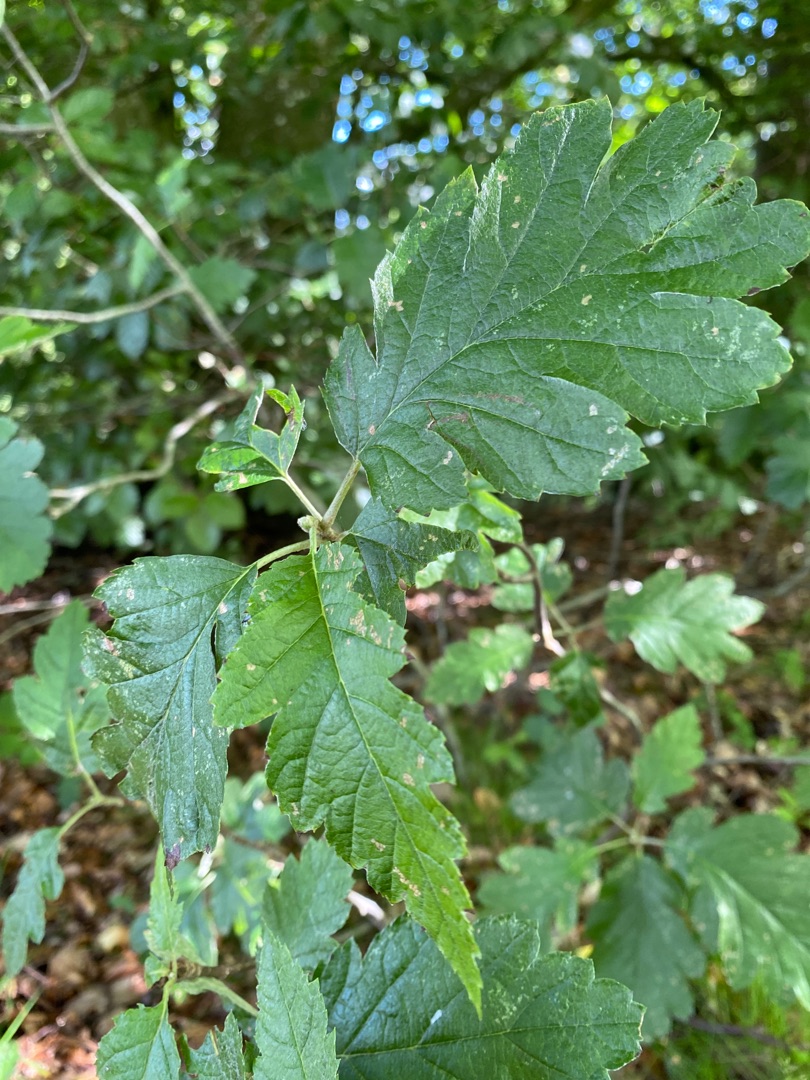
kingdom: Plantae
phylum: Tracheophyta
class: Magnoliopsida
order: Rosales
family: Rosaceae
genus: Scandosorbus
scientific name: Scandosorbus intermedia
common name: Selje-røn
